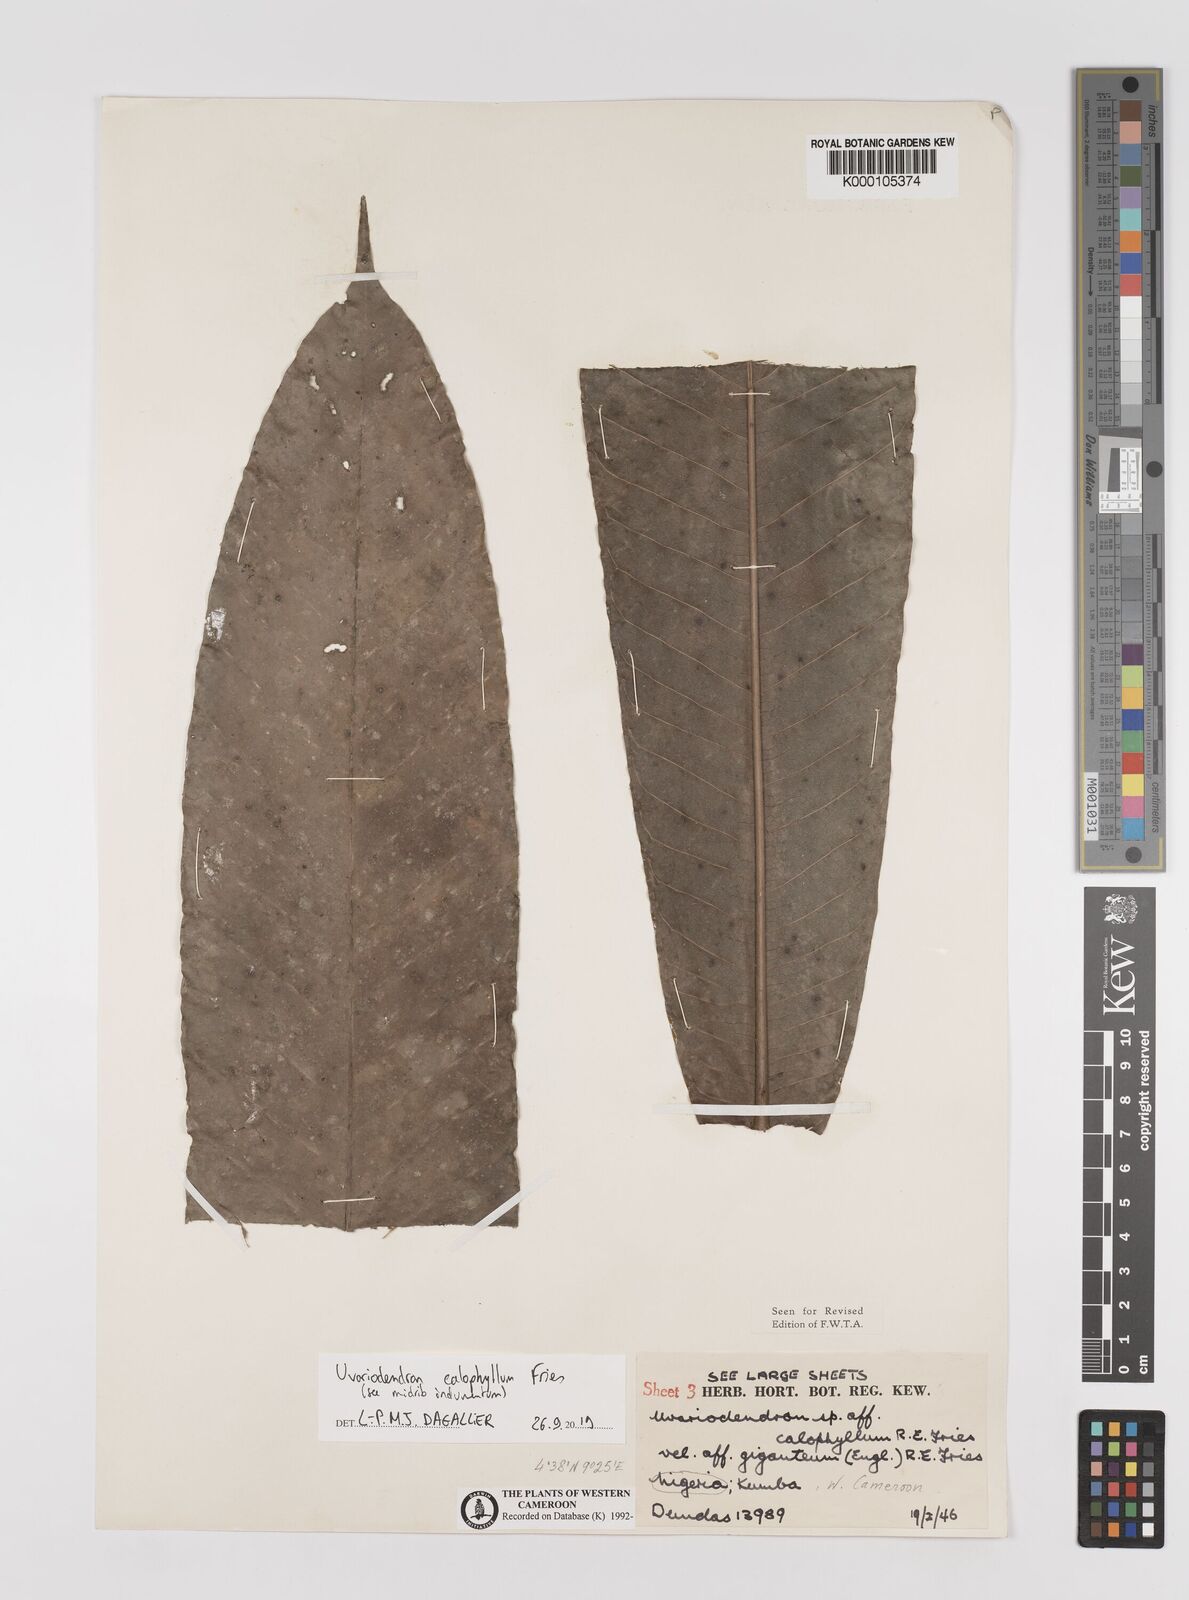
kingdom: Plantae
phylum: Tracheophyta
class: Magnoliopsida
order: Magnoliales
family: Annonaceae
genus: Uvariodendron
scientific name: Uvariodendron calophyllum
